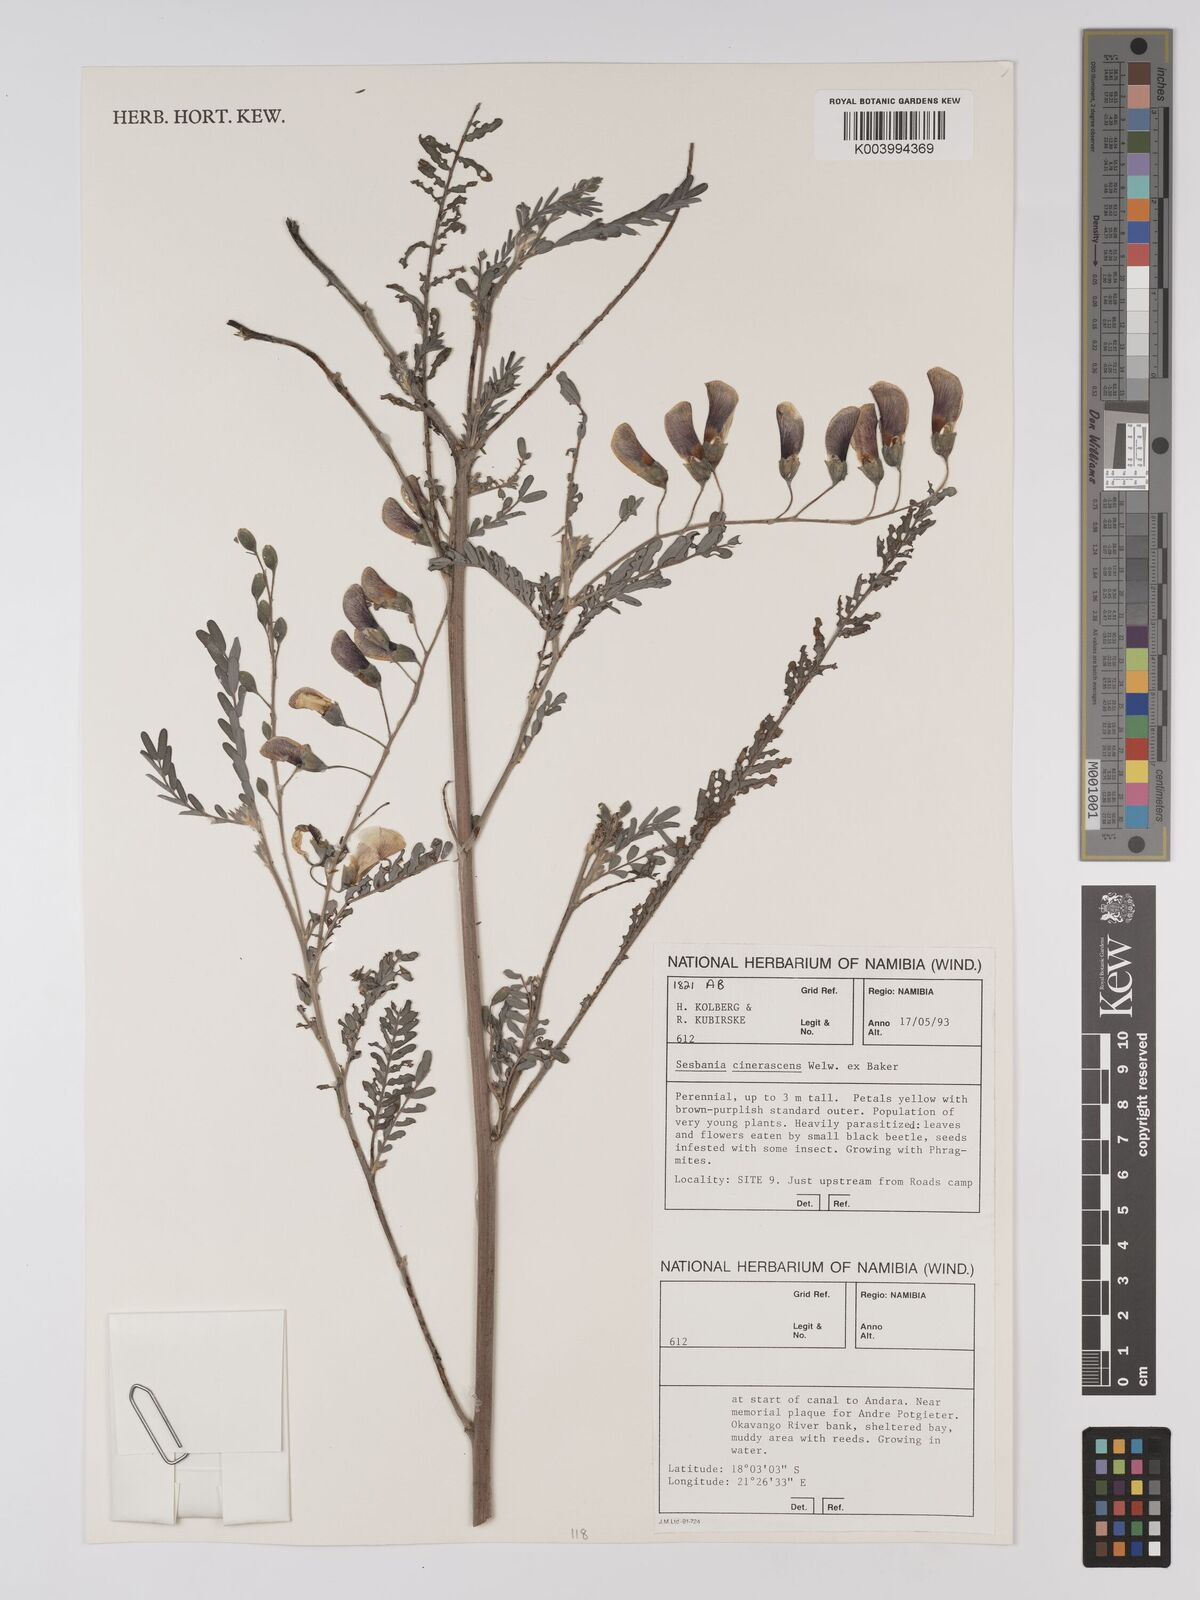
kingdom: Plantae
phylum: Tracheophyta
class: Magnoliopsida
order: Fabales
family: Fabaceae
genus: Sesbania
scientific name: Sesbania cinerascens
